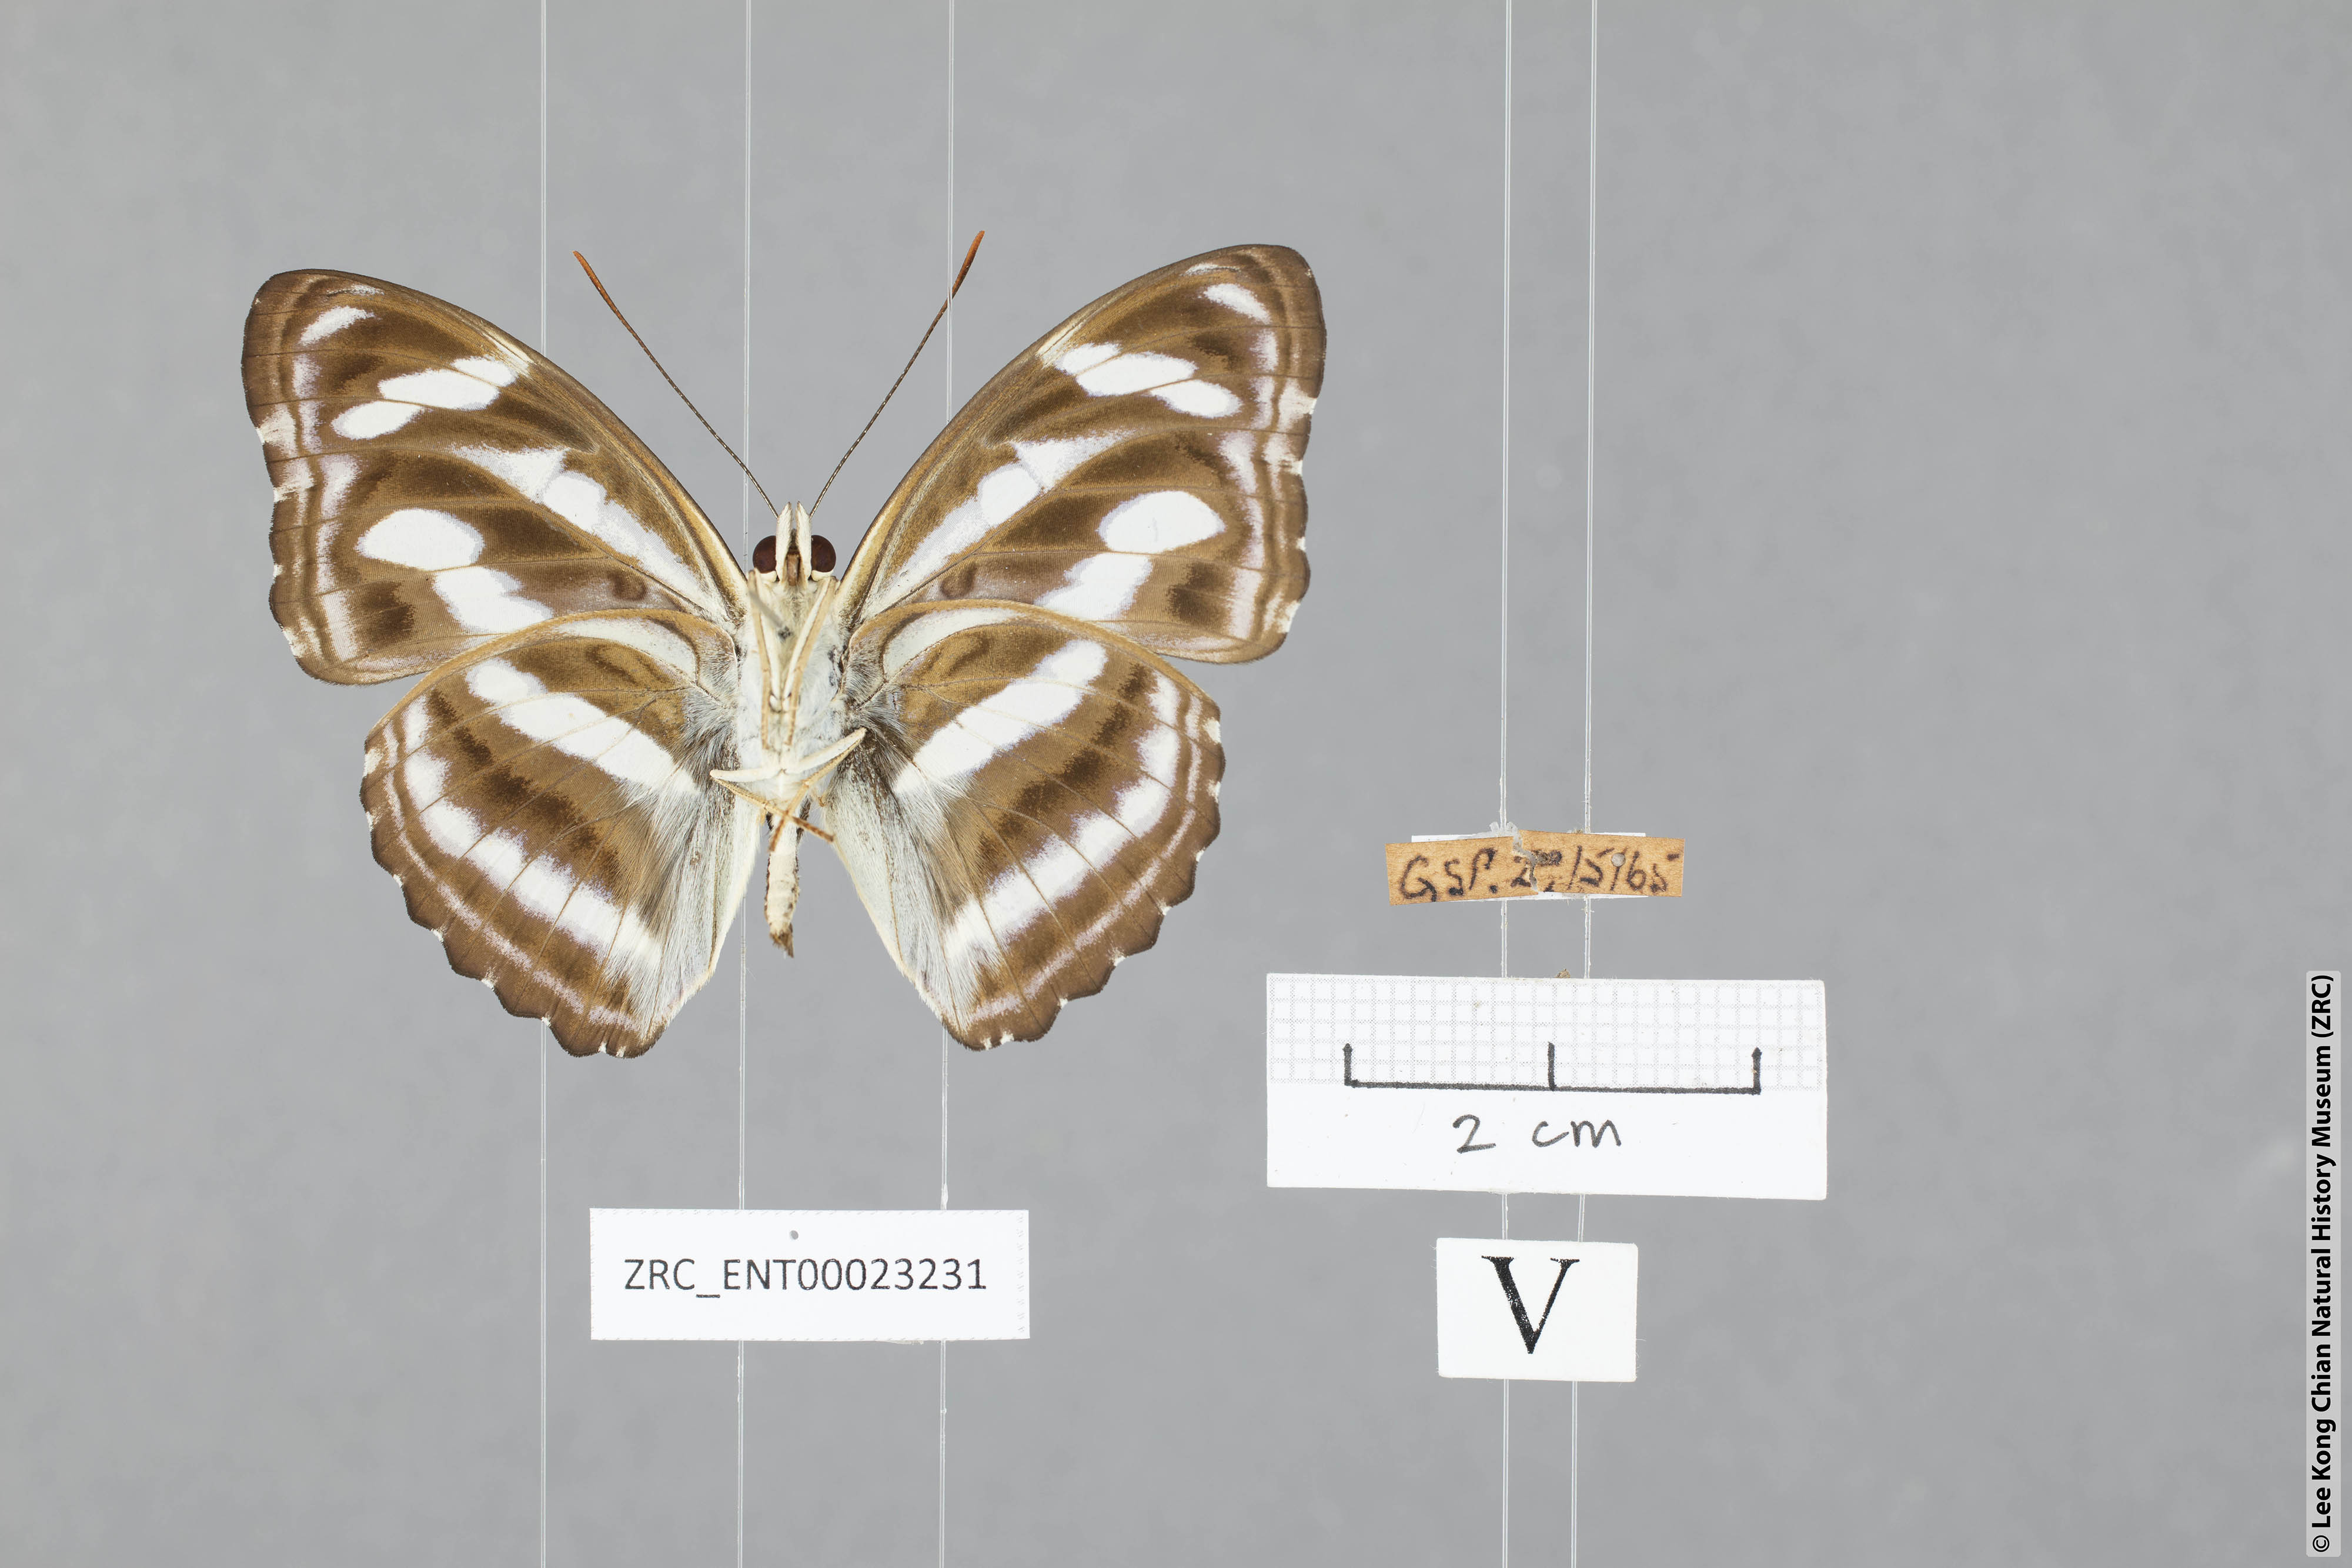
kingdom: Animalia
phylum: Arthropoda
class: Insecta
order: Lepidoptera
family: Nymphalidae
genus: Parathyma
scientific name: Parathyma nefte
